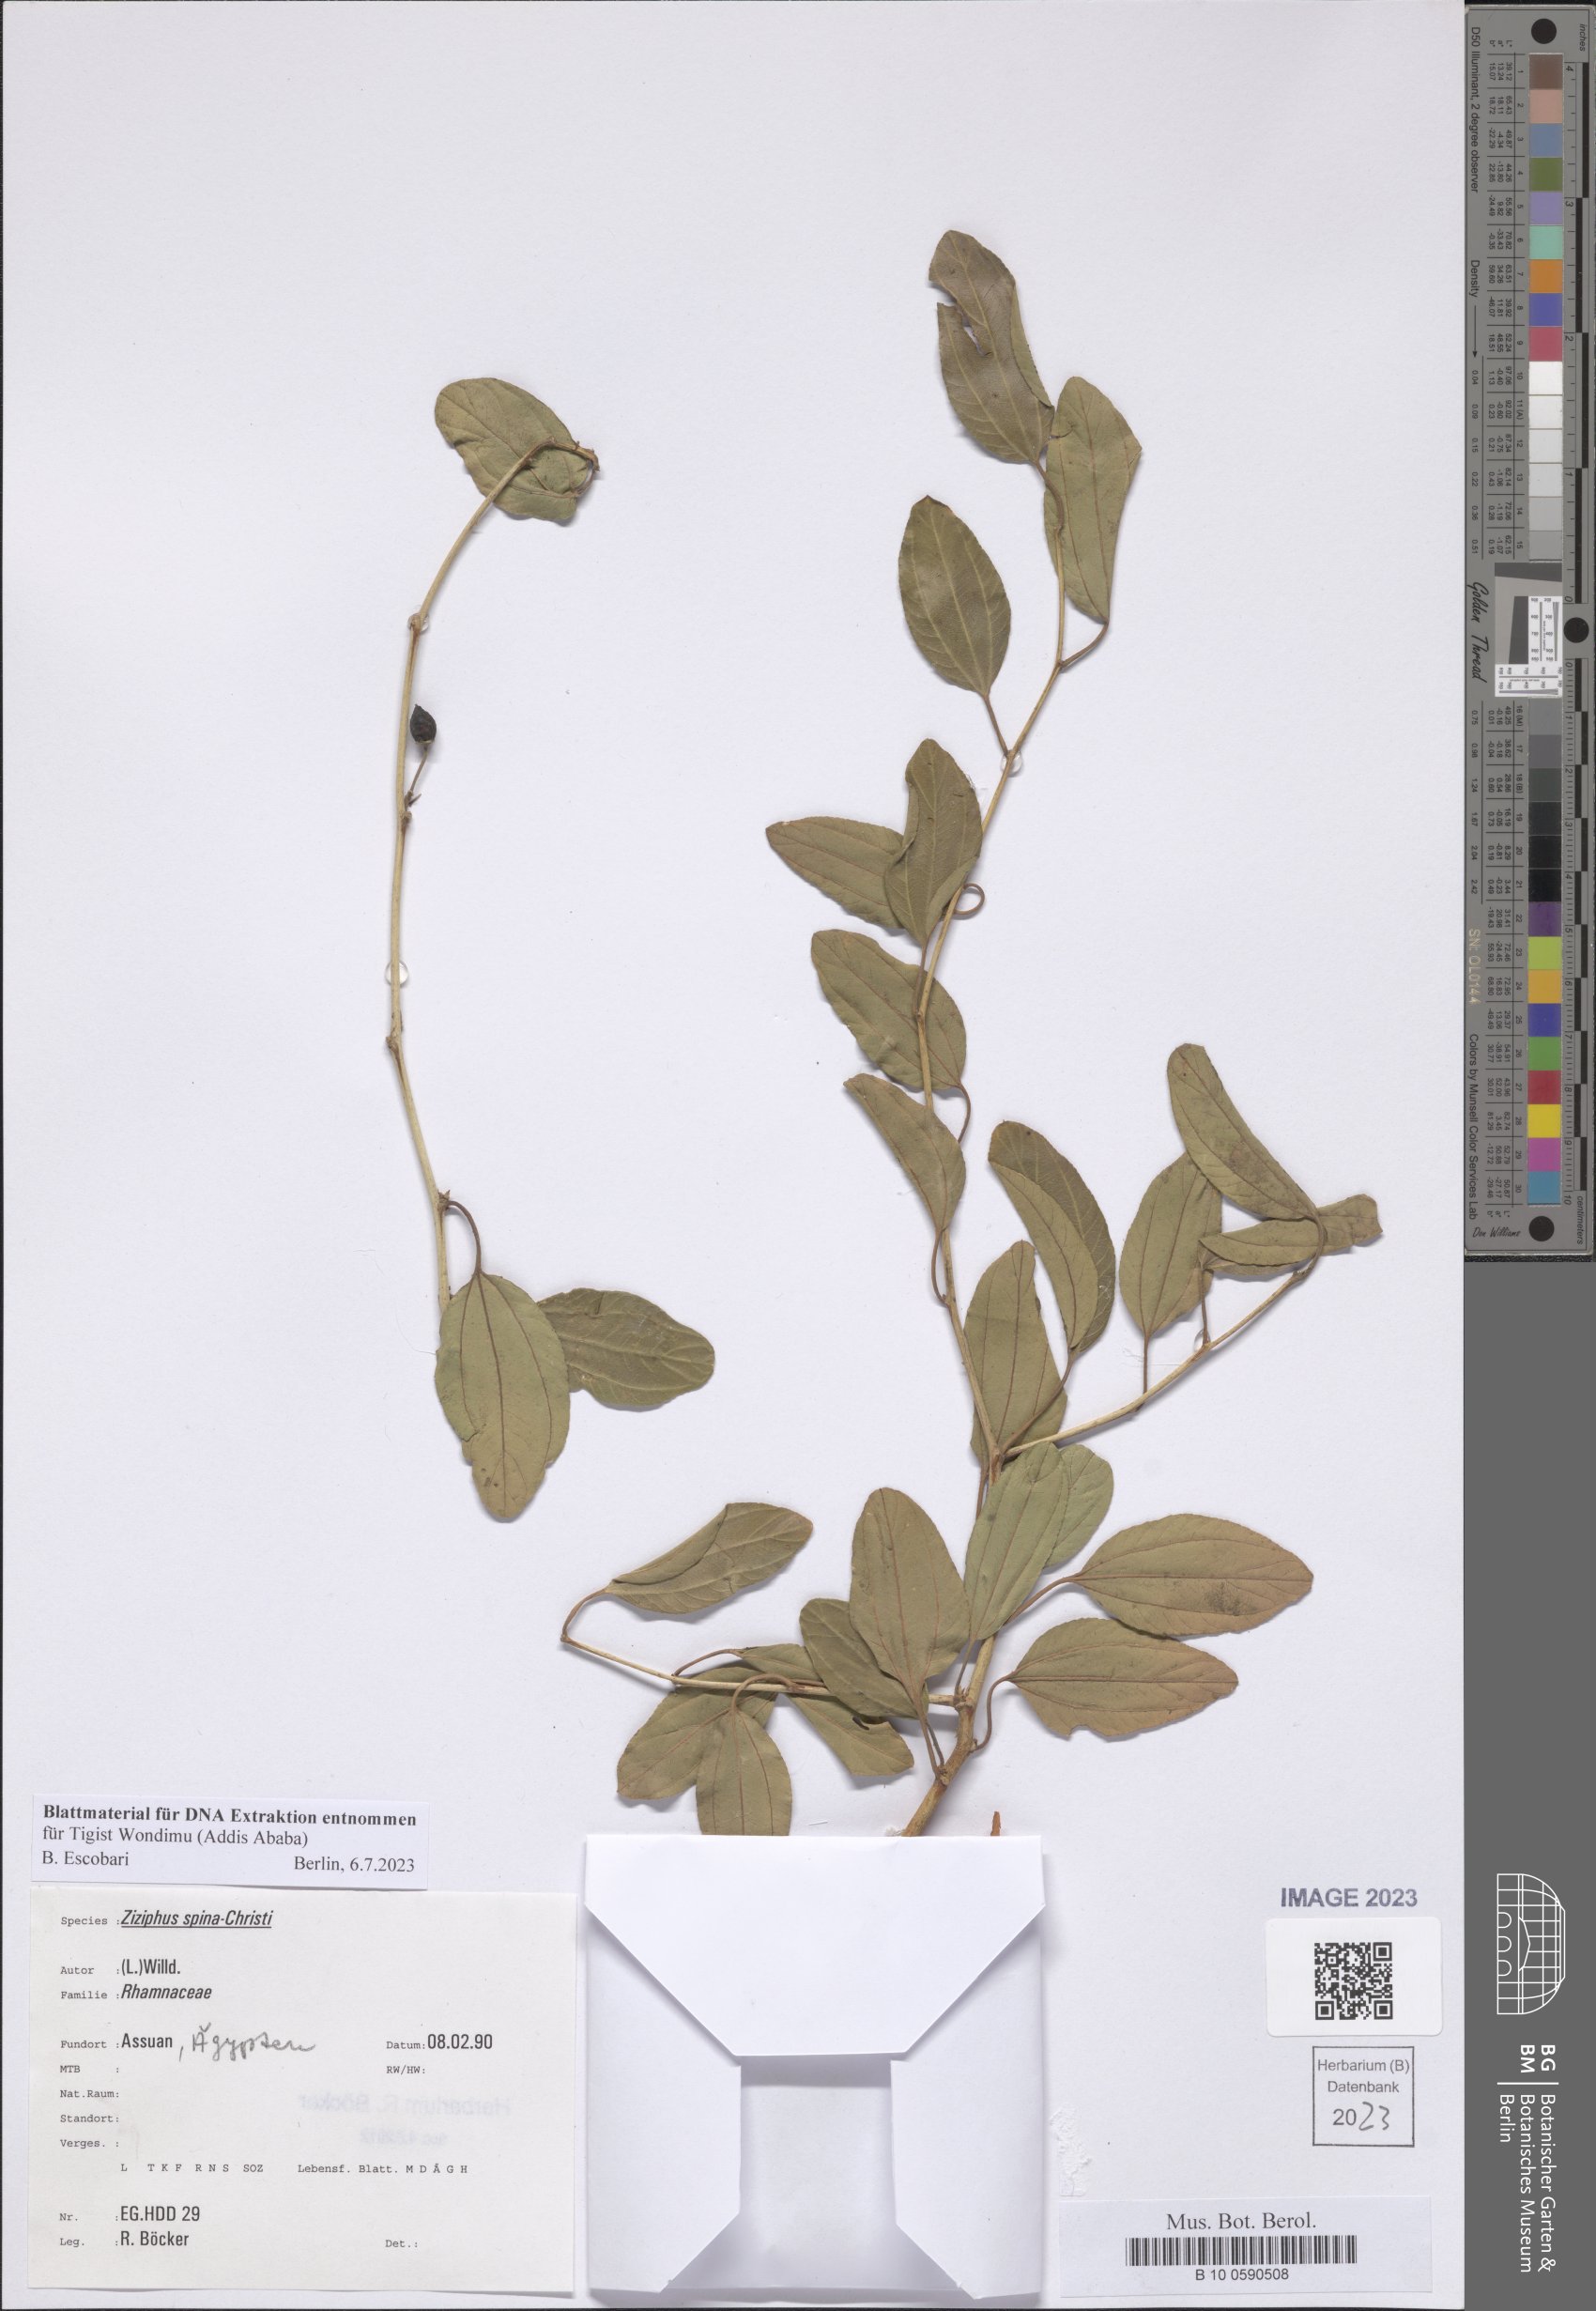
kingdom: Plantae
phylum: Tracheophyta
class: Magnoliopsida
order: Rosales
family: Rhamnaceae
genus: Ziziphus
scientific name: Ziziphus spina-christi
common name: Syrian christ-thorn
